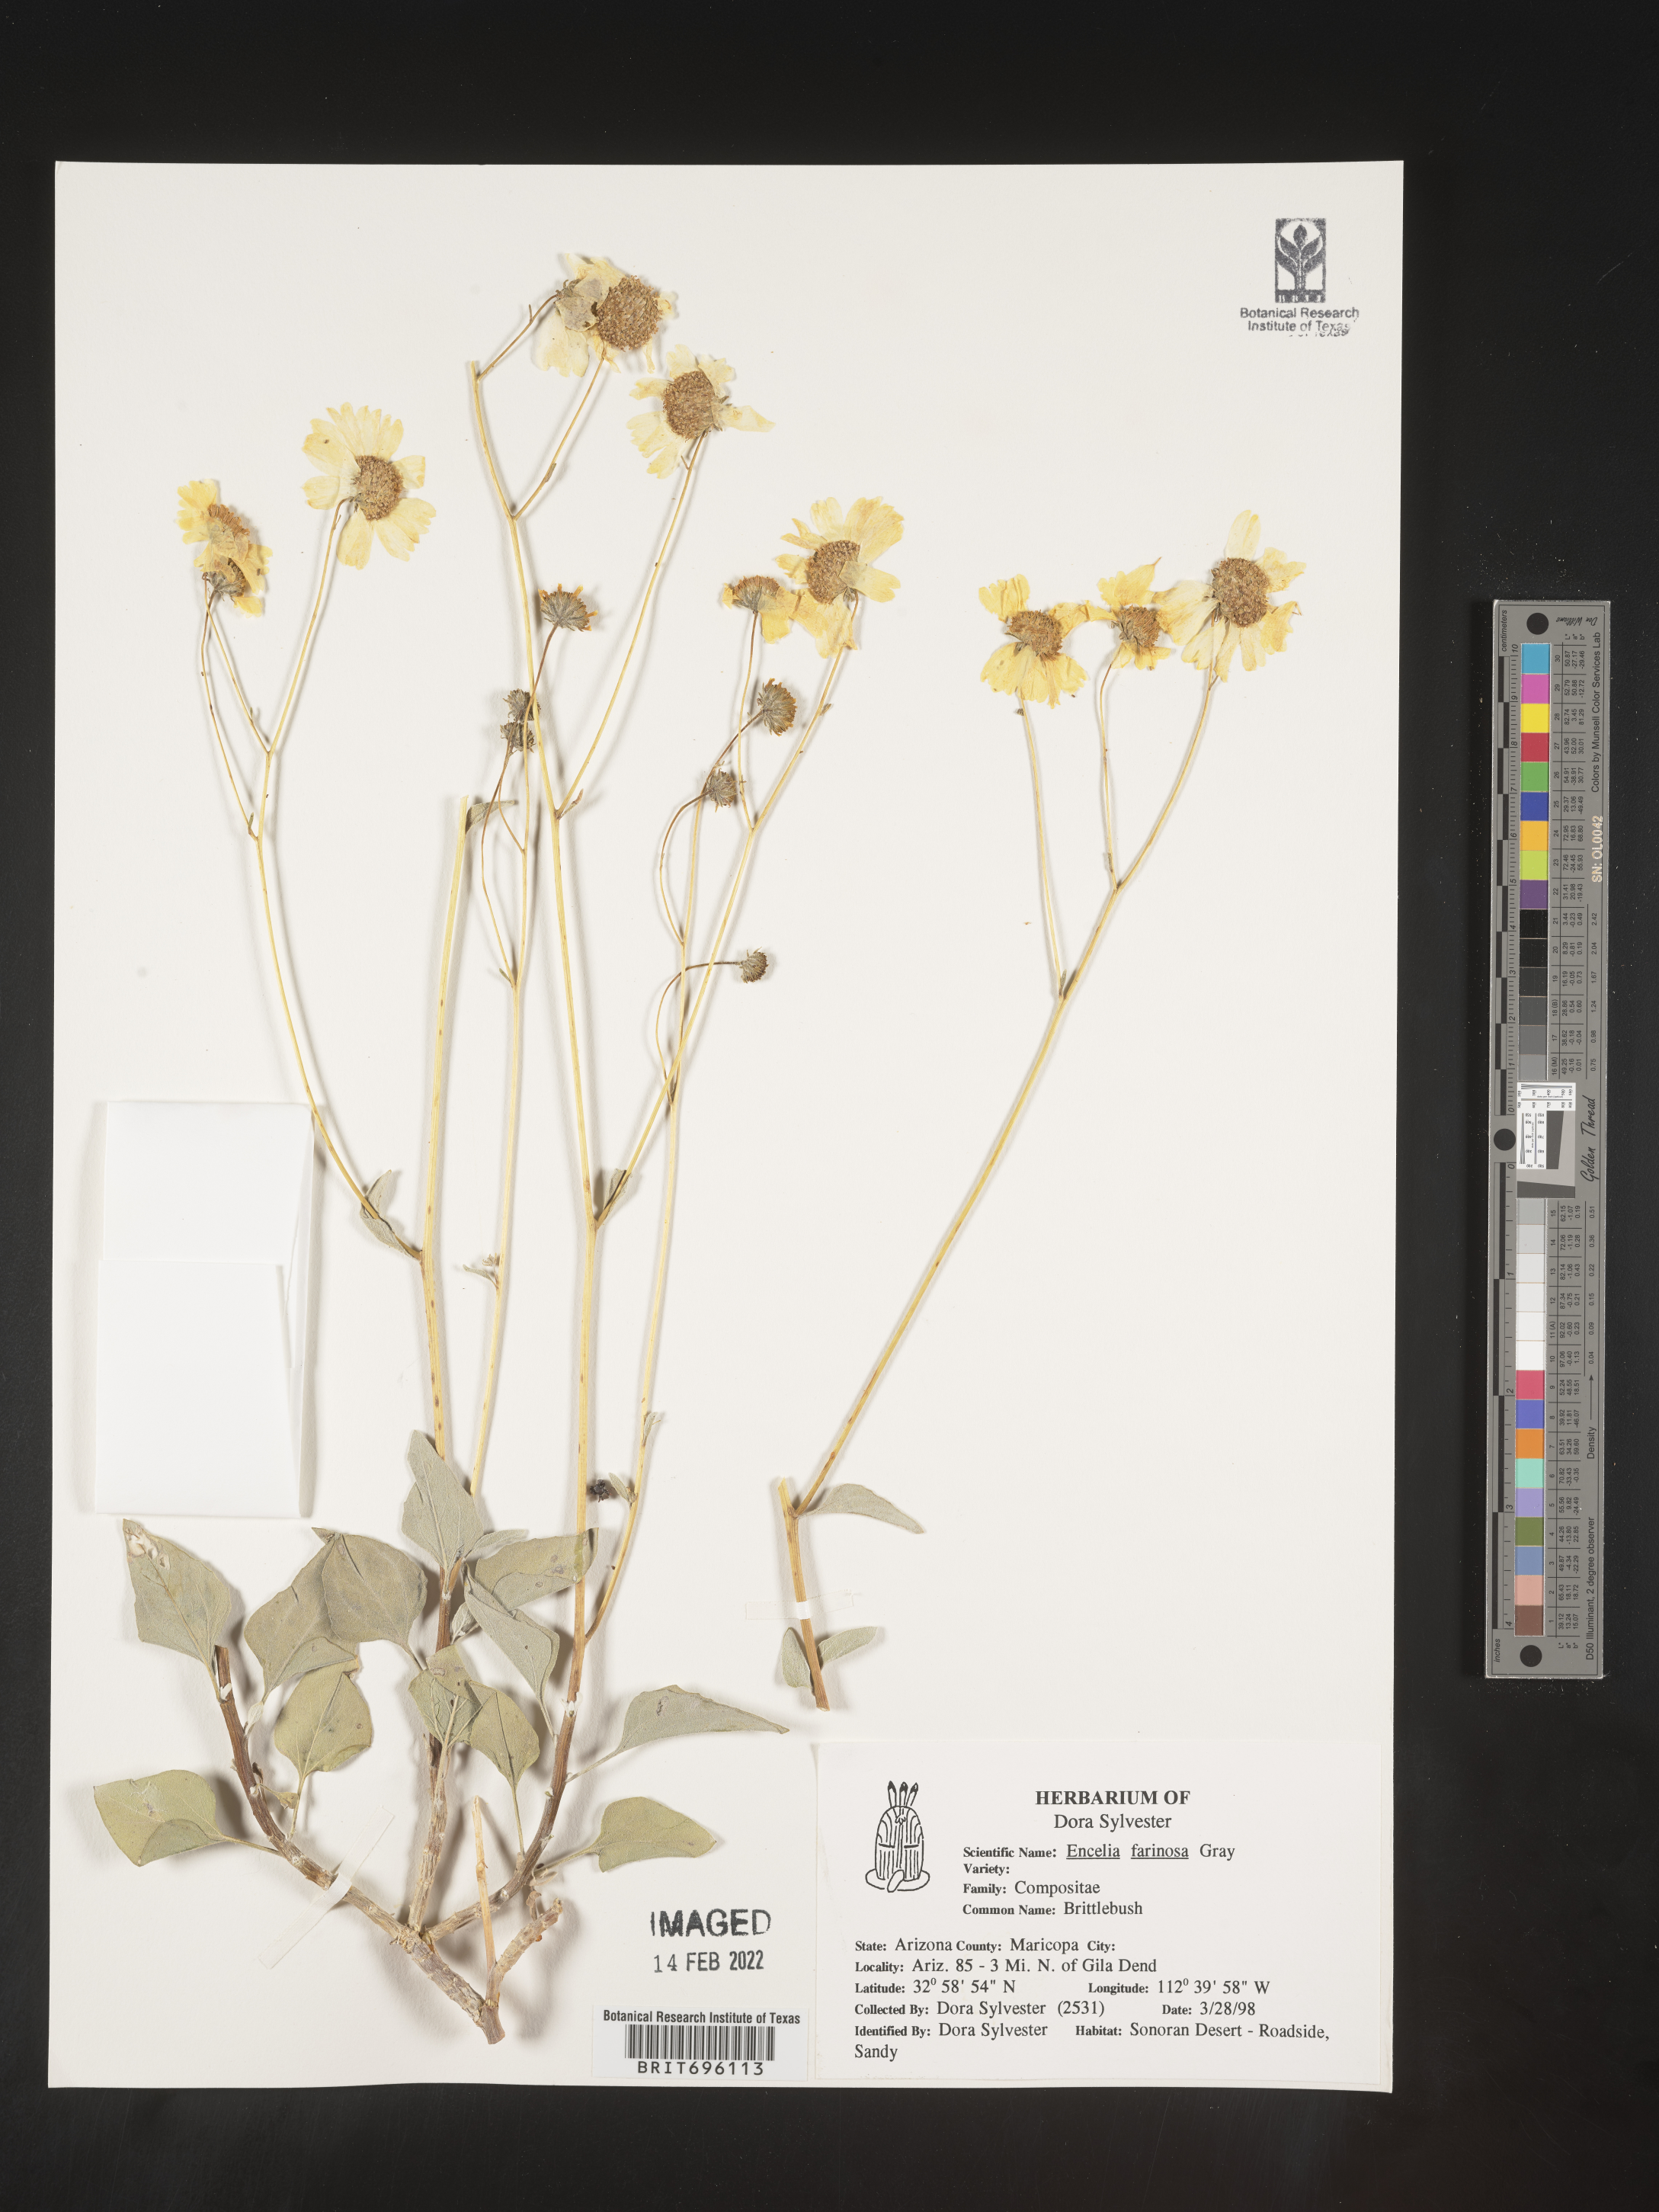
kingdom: Plantae
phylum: Tracheophyta
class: Magnoliopsida
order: Asterales
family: Asteraceae
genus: Encelia
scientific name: Encelia farinosa
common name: Brittlebush
